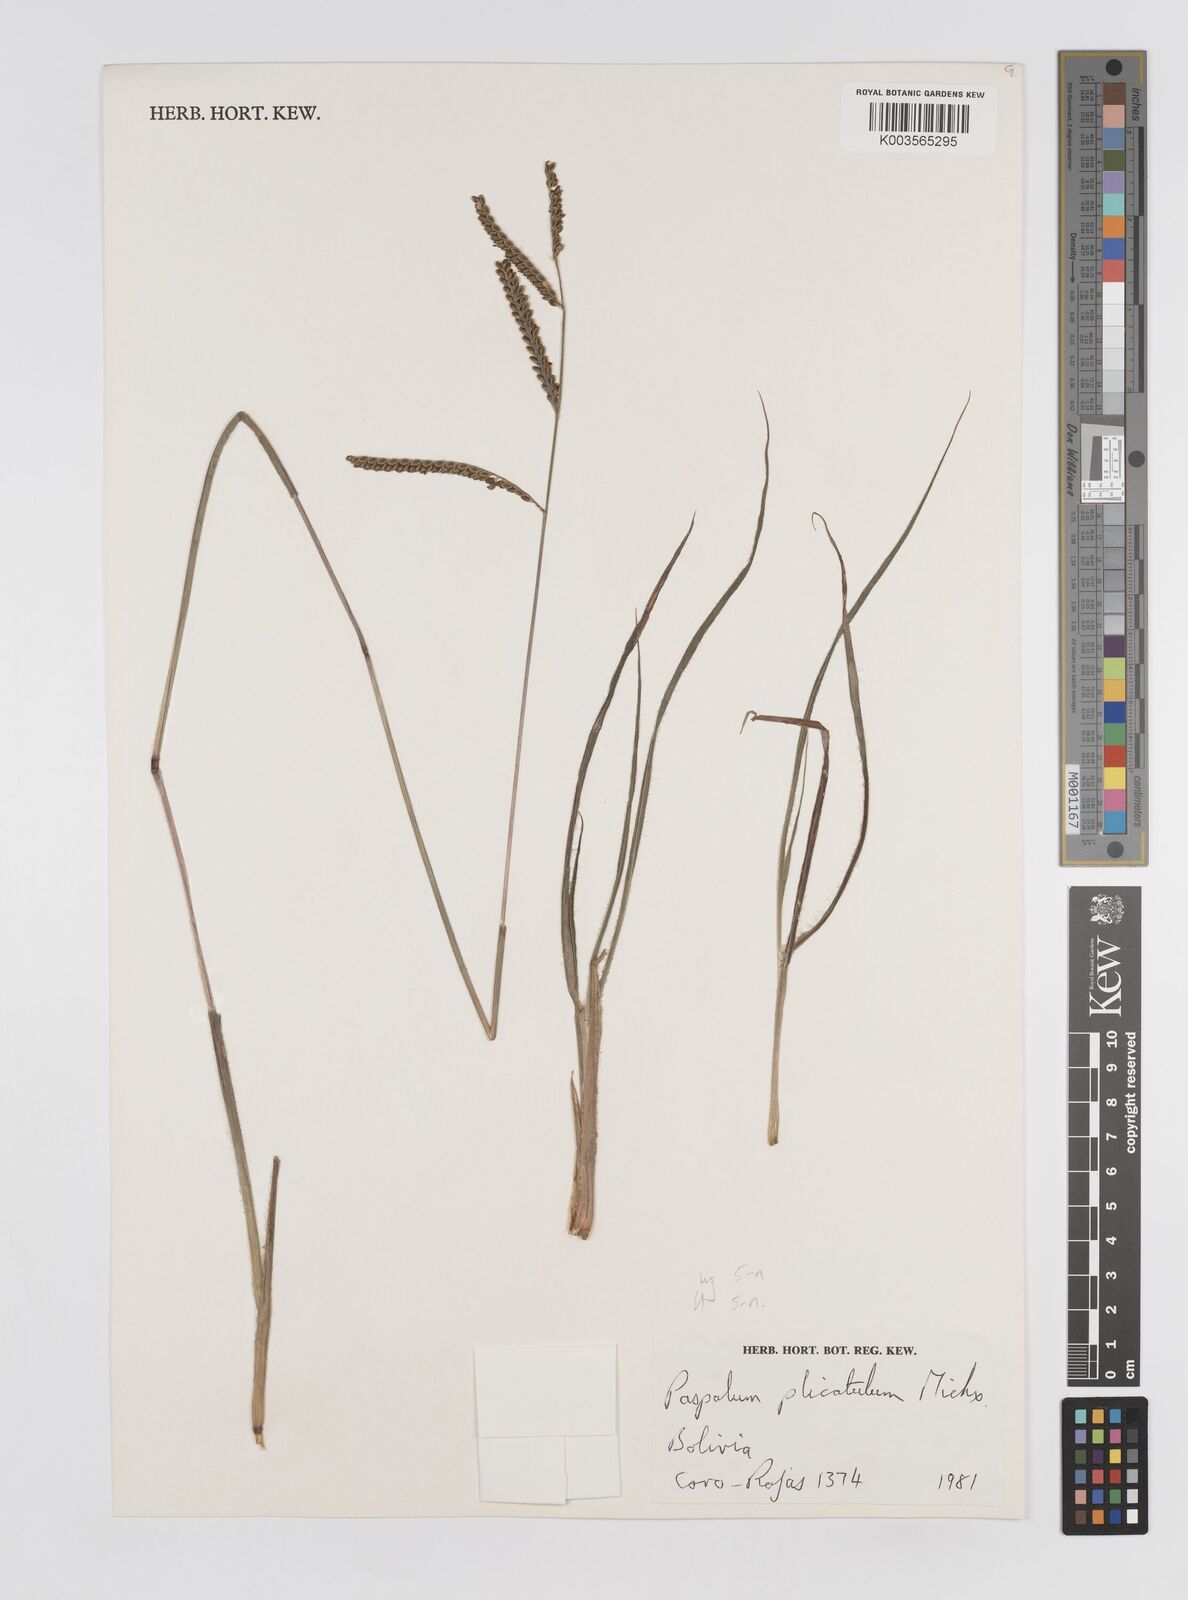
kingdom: Plantae
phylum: Tracheophyta
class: Liliopsida
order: Poales
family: Poaceae
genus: Paspalum
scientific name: Paspalum guenoarum
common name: Wintergreen paspalum
